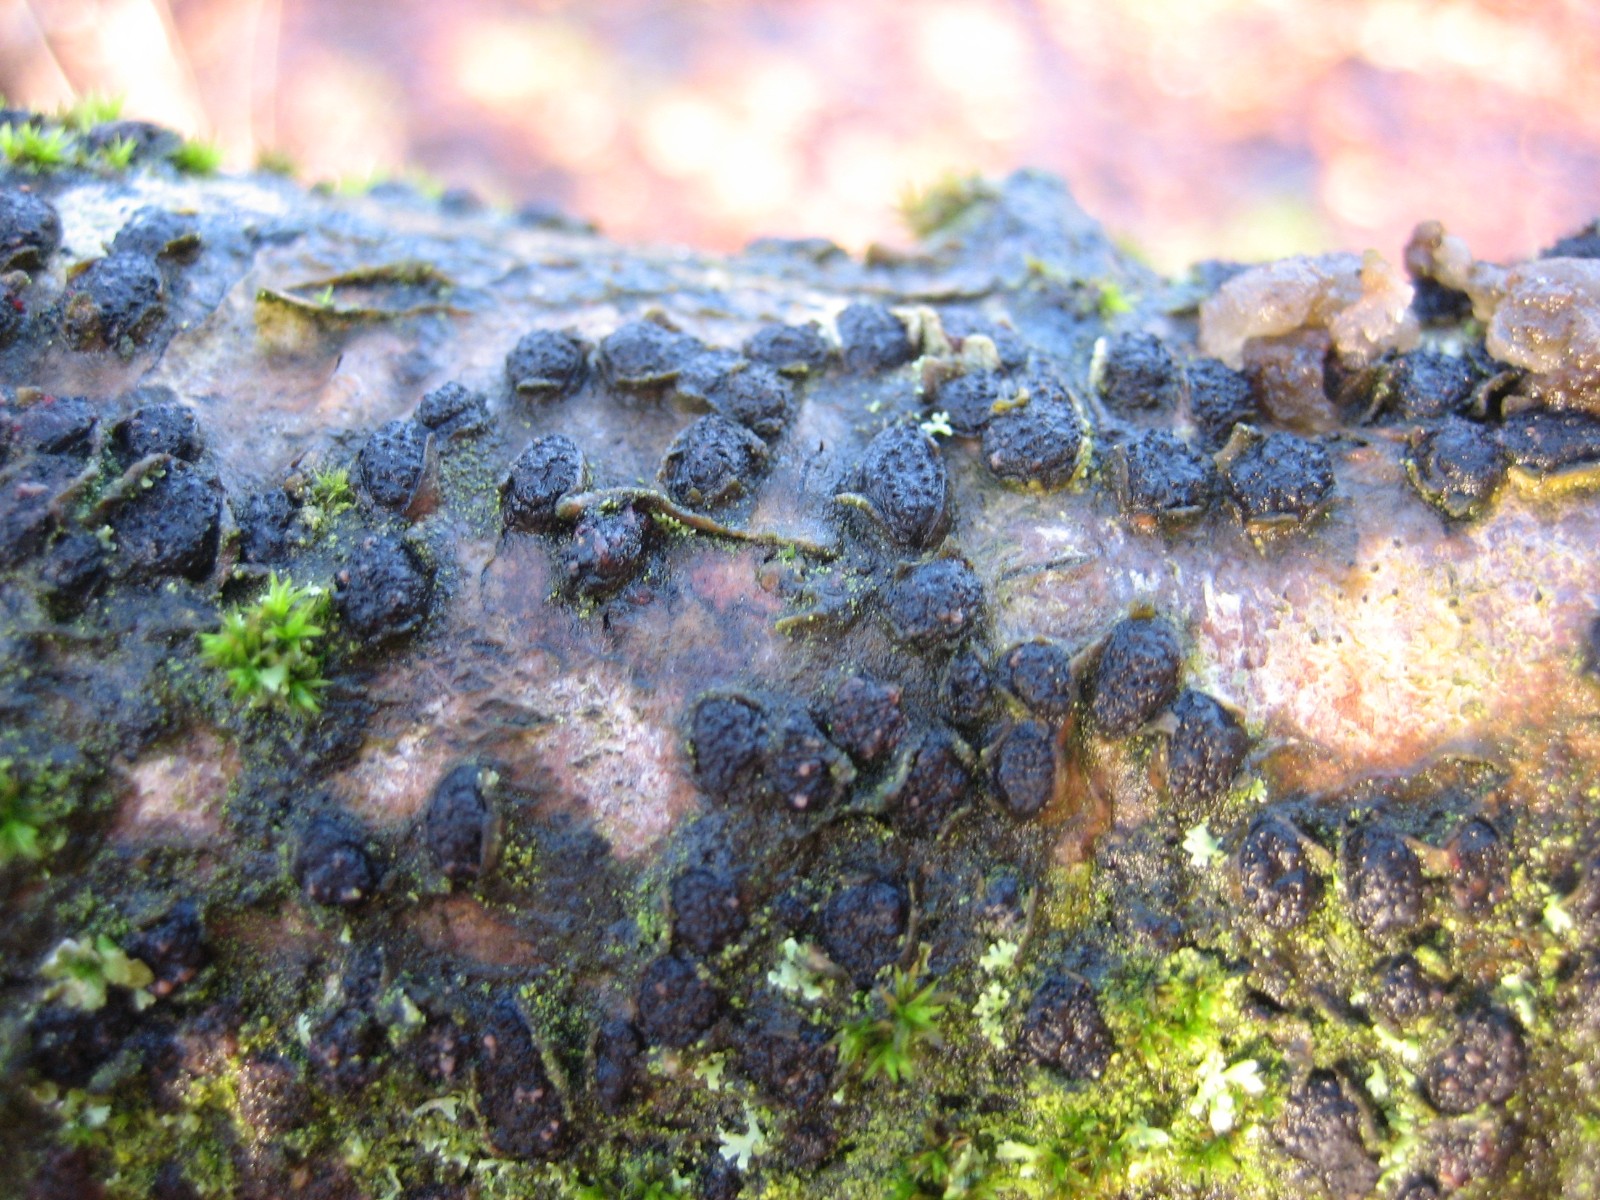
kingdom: Fungi
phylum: Ascomycota
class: Sordariomycetes
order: Xylariales
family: Diatrypaceae
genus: Diatrypella
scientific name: Diatrypella quercina
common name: ege-kulskorpe
